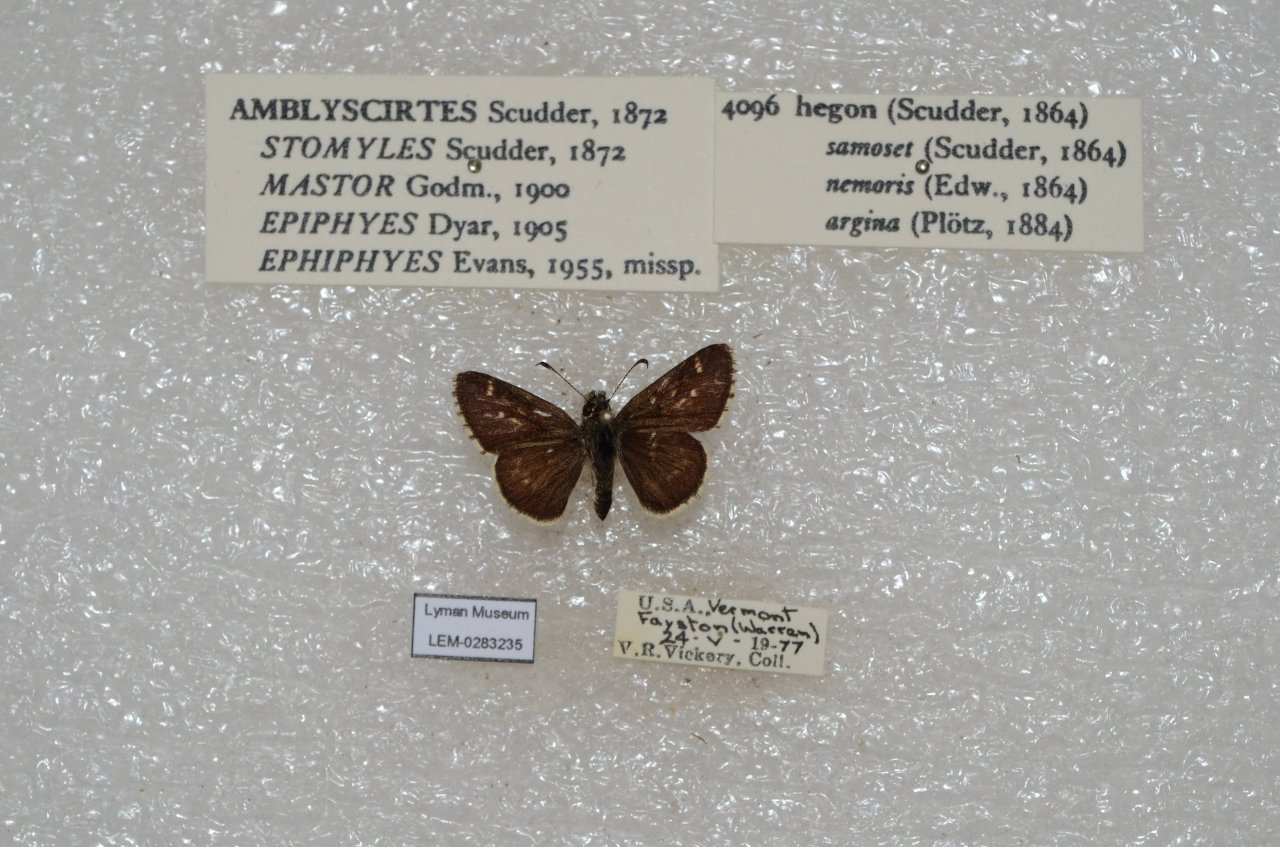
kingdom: Animalia
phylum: Arthropoda
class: Insecta
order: Lepidoptera
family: Hesperiidae
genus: Mastor
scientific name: Mastor hegon
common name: Pepper and Salt Skipper
